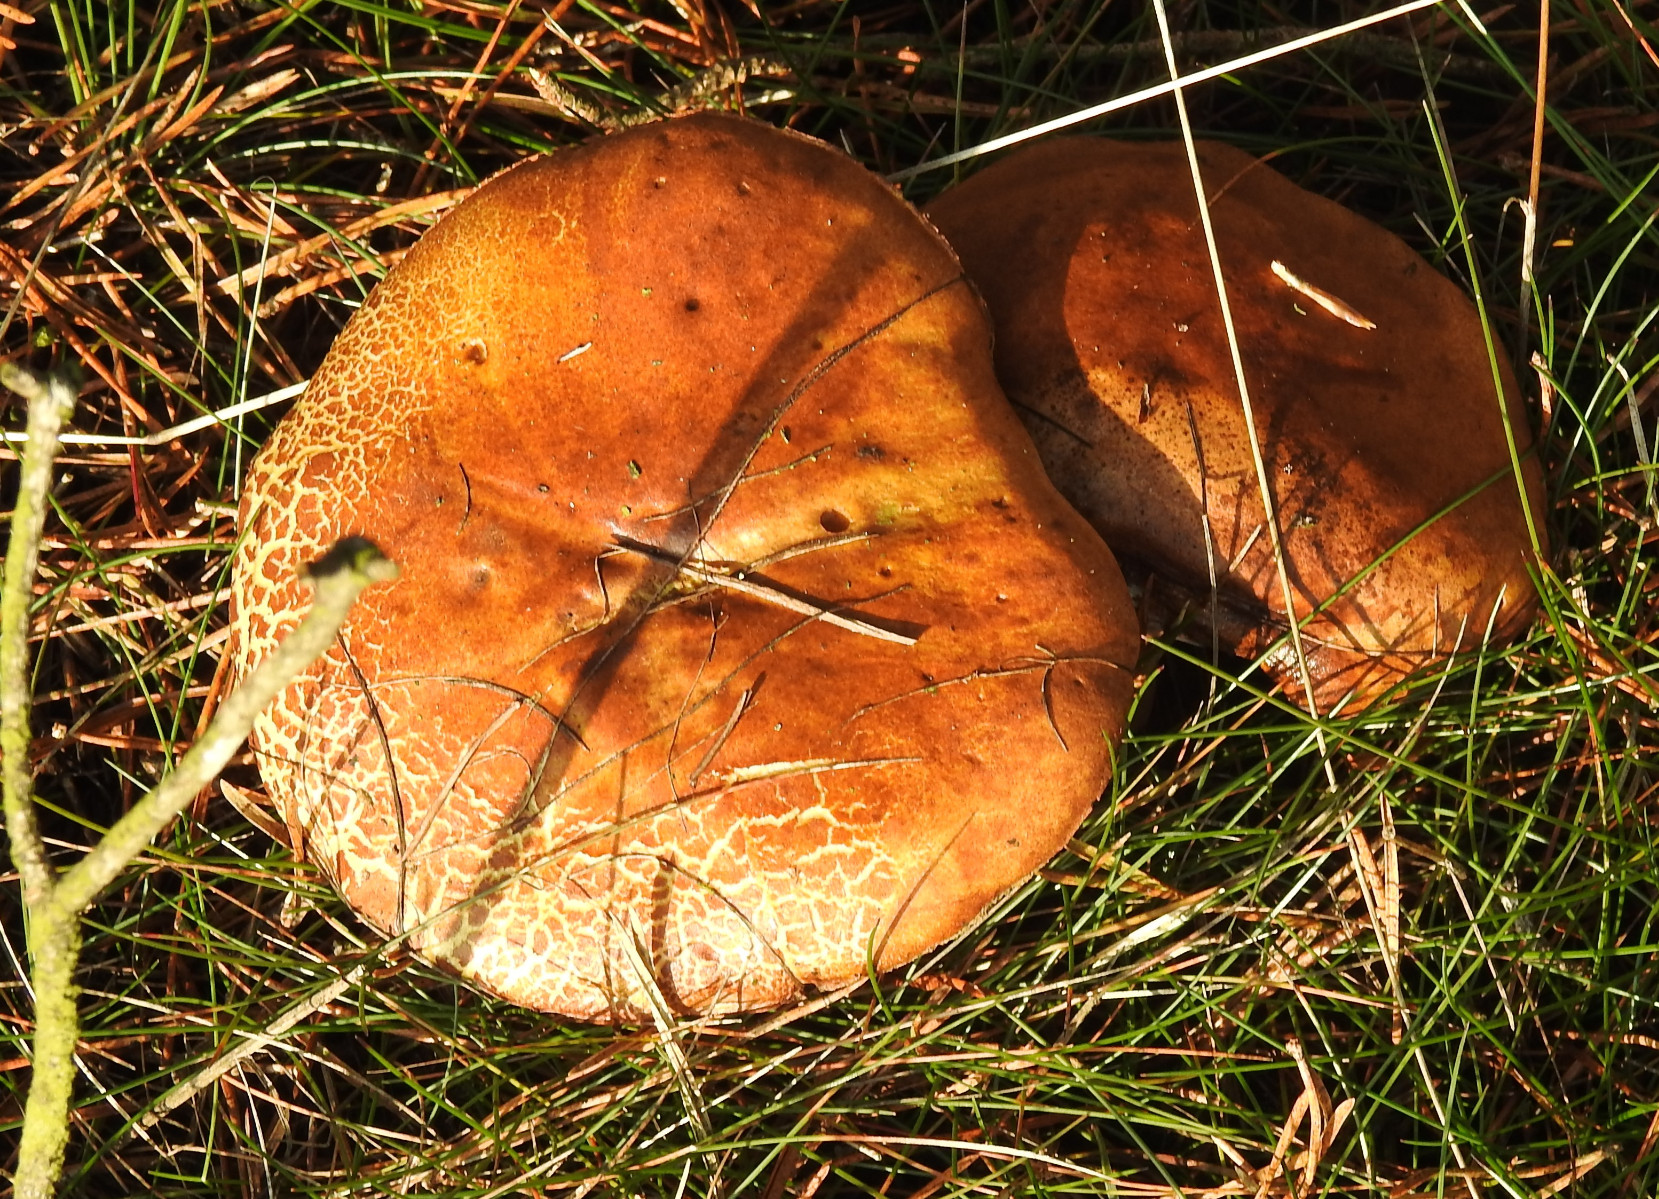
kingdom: Fungi
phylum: Basidiomycota
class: Agaricomycetes
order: Boletales
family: Boletaceae
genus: Imleria
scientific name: Imleria badia
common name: brunstokket rørhat
